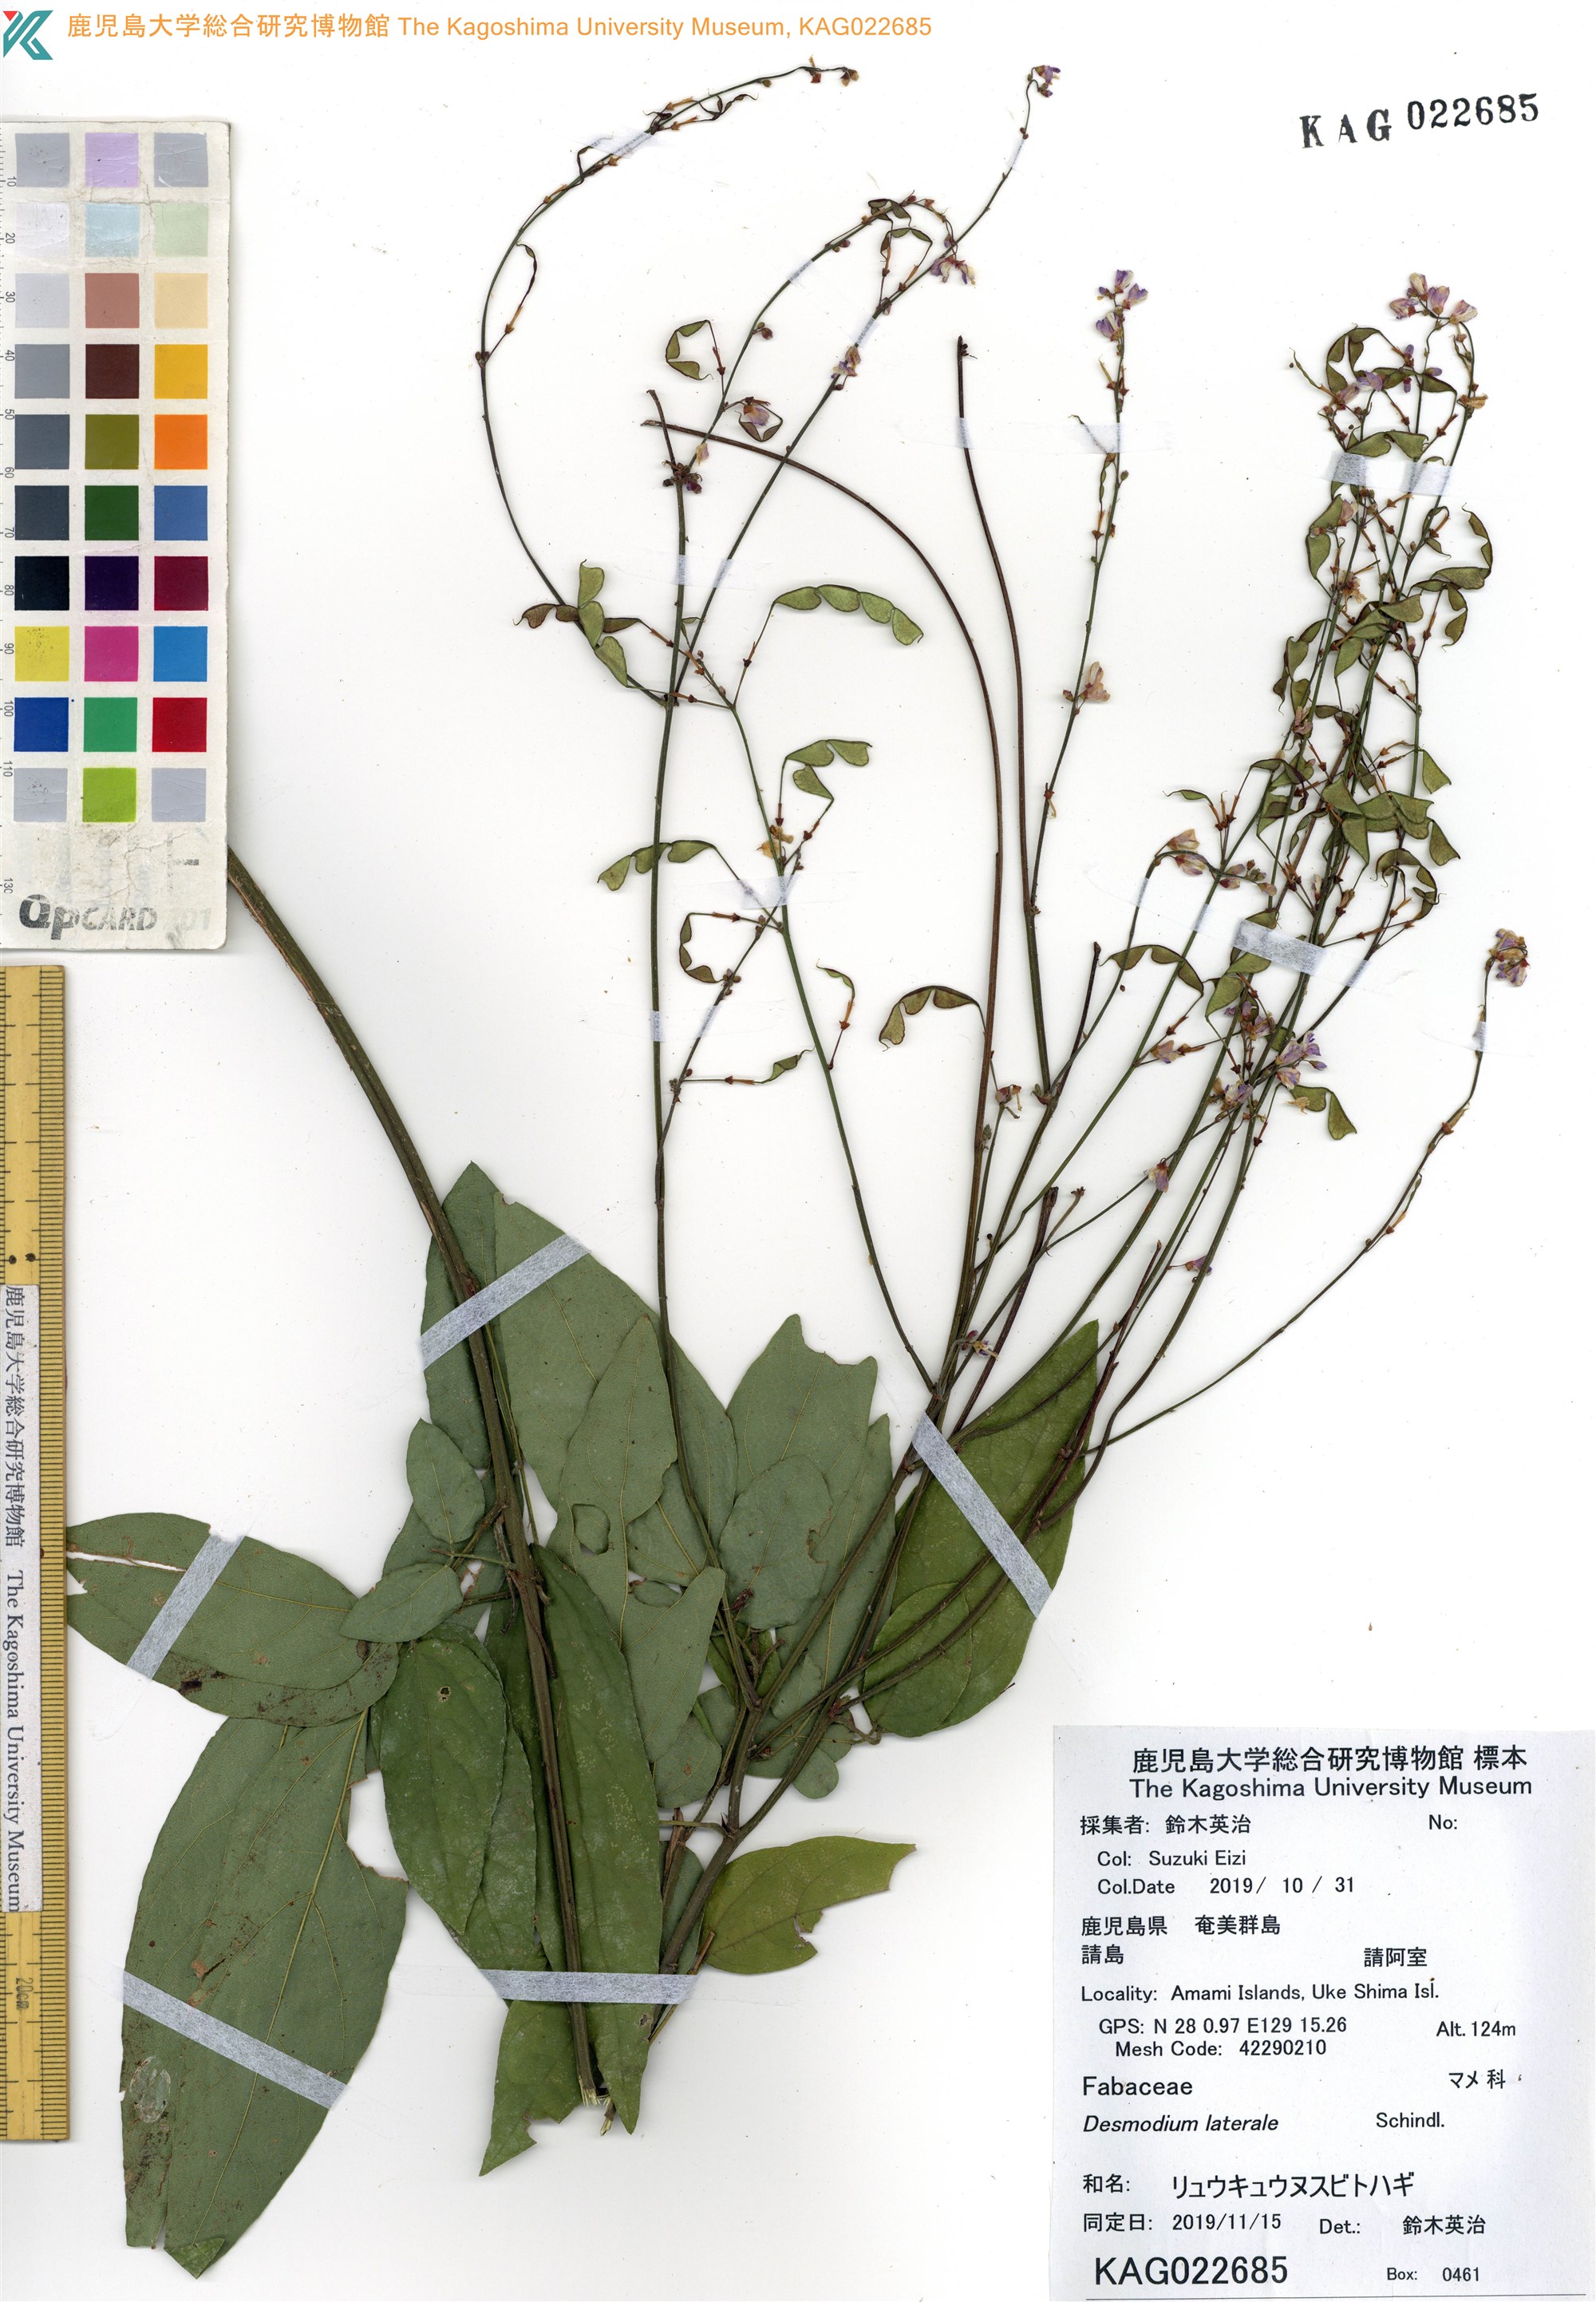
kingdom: Plantae
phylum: Tracheophyta
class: Magnoliopsida
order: Fabales
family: Fabaceae
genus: Hylodesmum
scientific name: Hylodesmum leptopus
